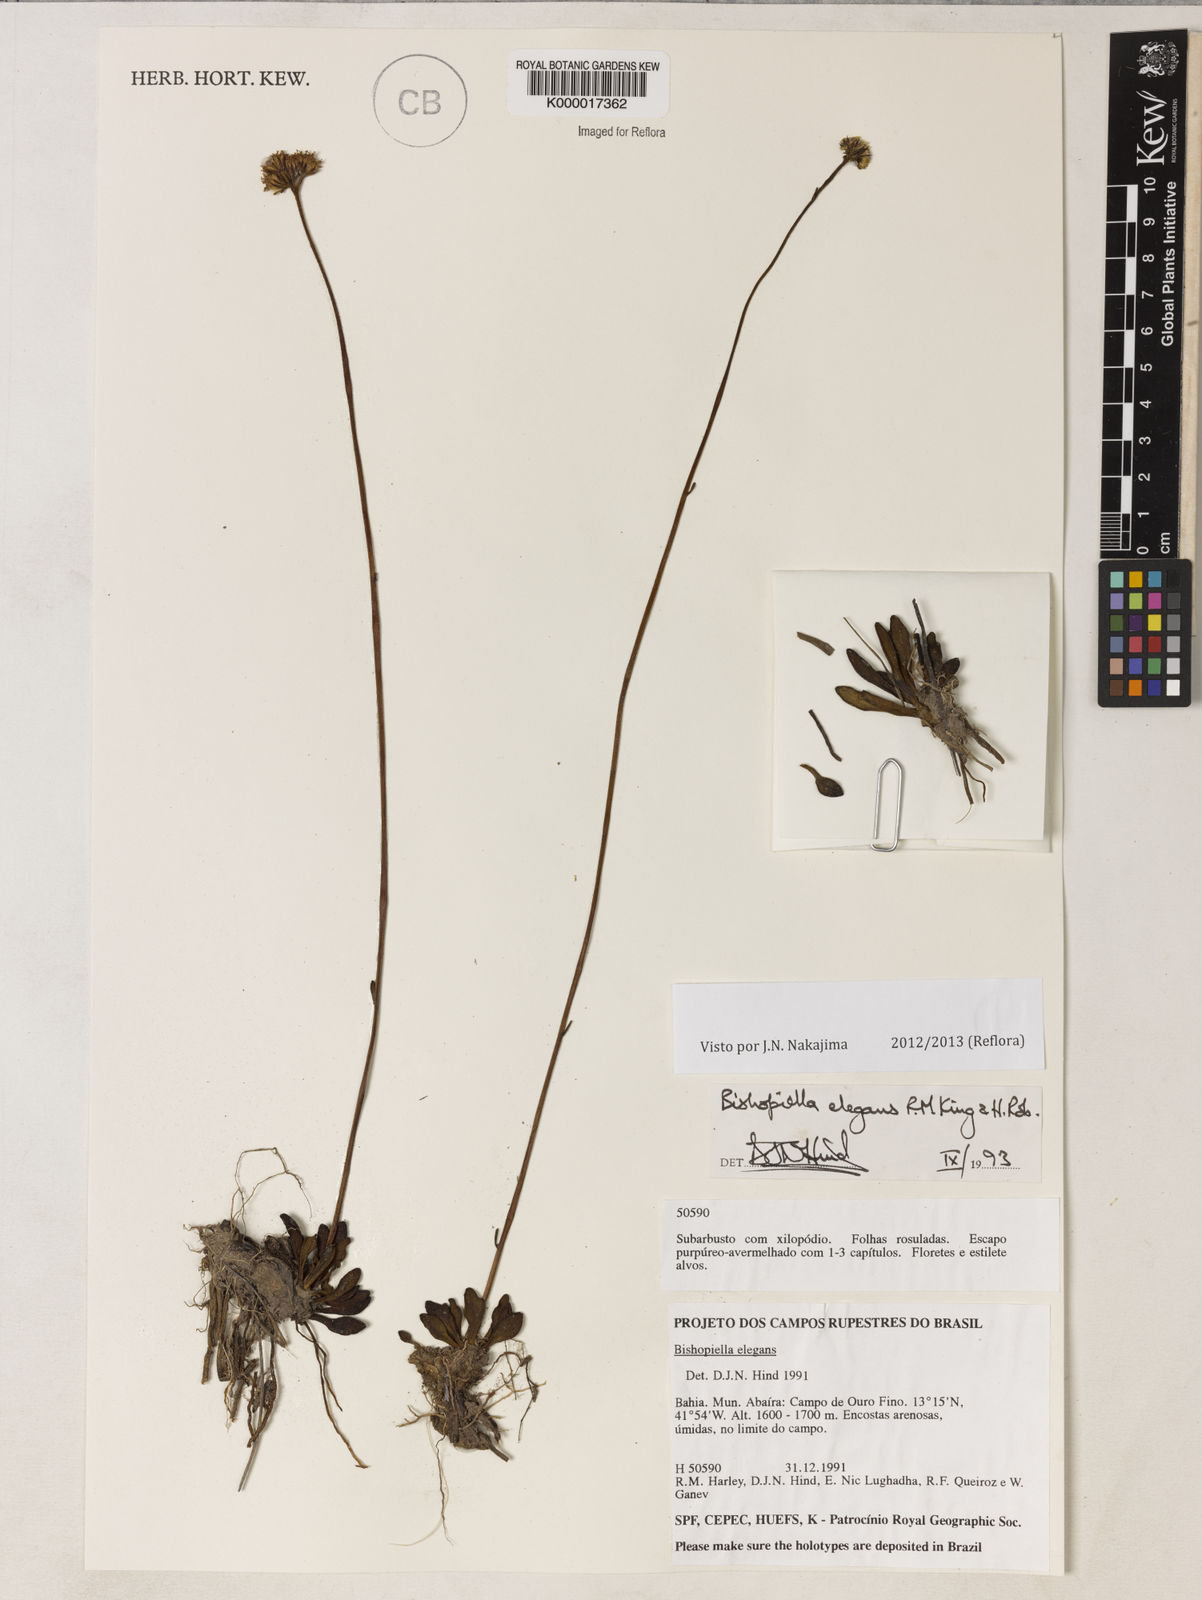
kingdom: Plantae
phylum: Tracheophyta
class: Magnoliopsida
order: Asterales
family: Asteraceae
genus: Bishopiella
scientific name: Bishopiella elegans
